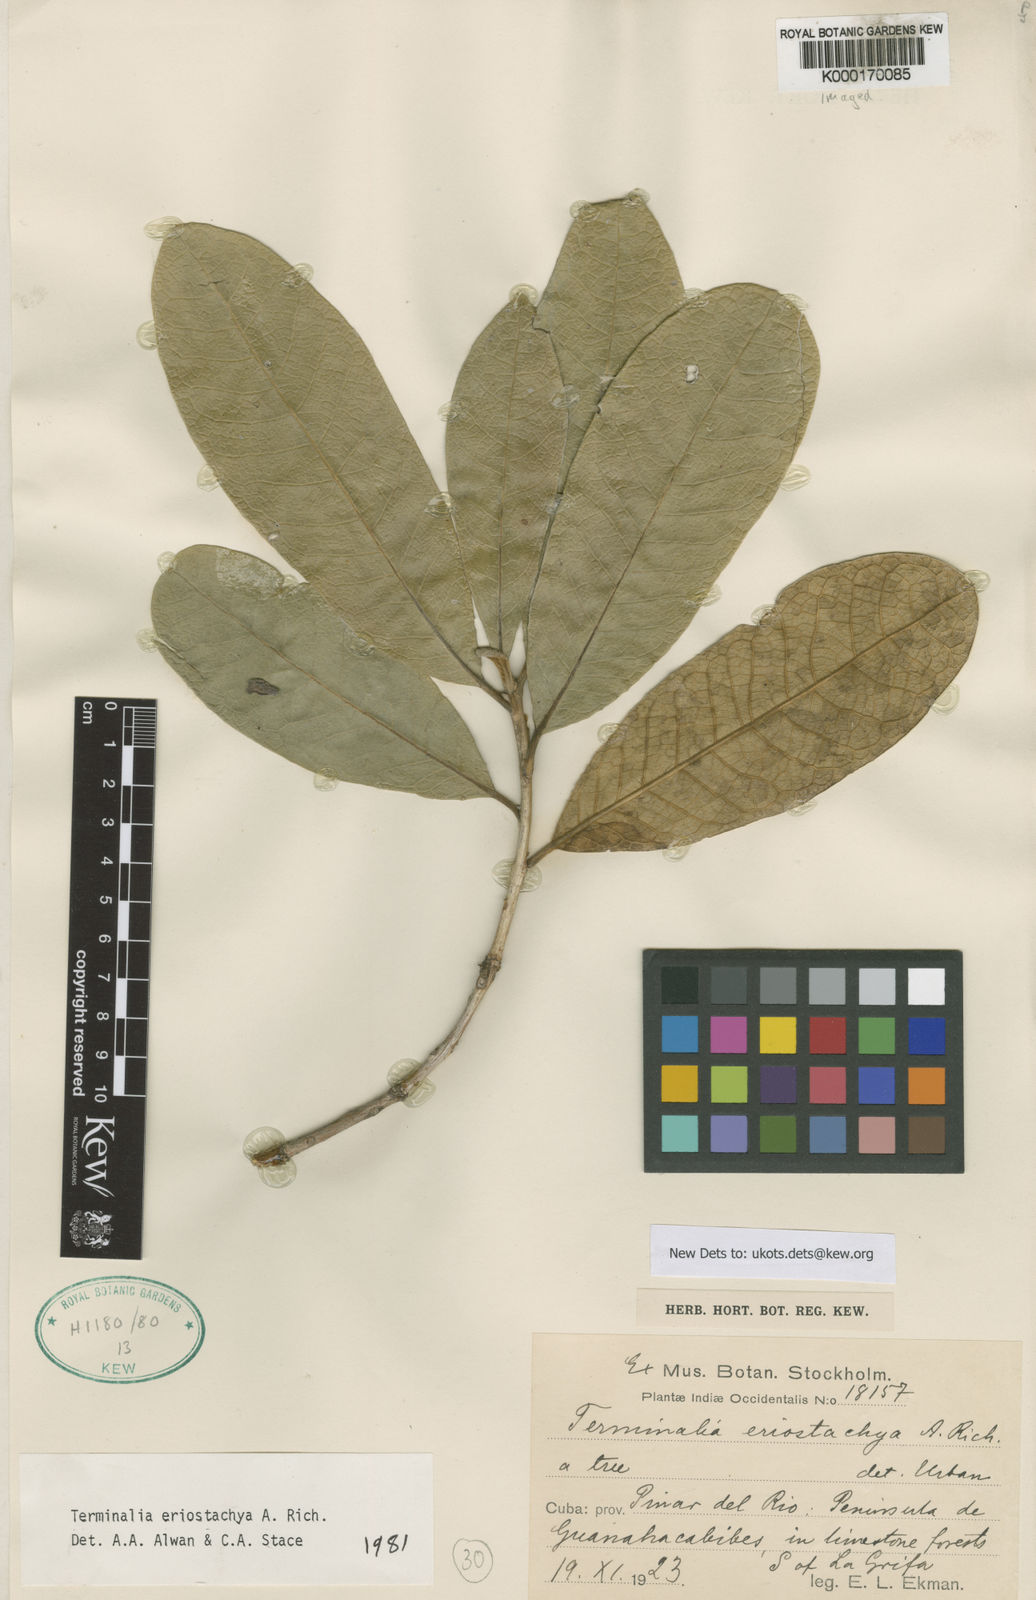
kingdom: Plantae
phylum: Tracheophyta
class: Magnoliopsida
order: Myrtales
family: Combretaceae
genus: Terminalia
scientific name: Terminalia eriostachya
